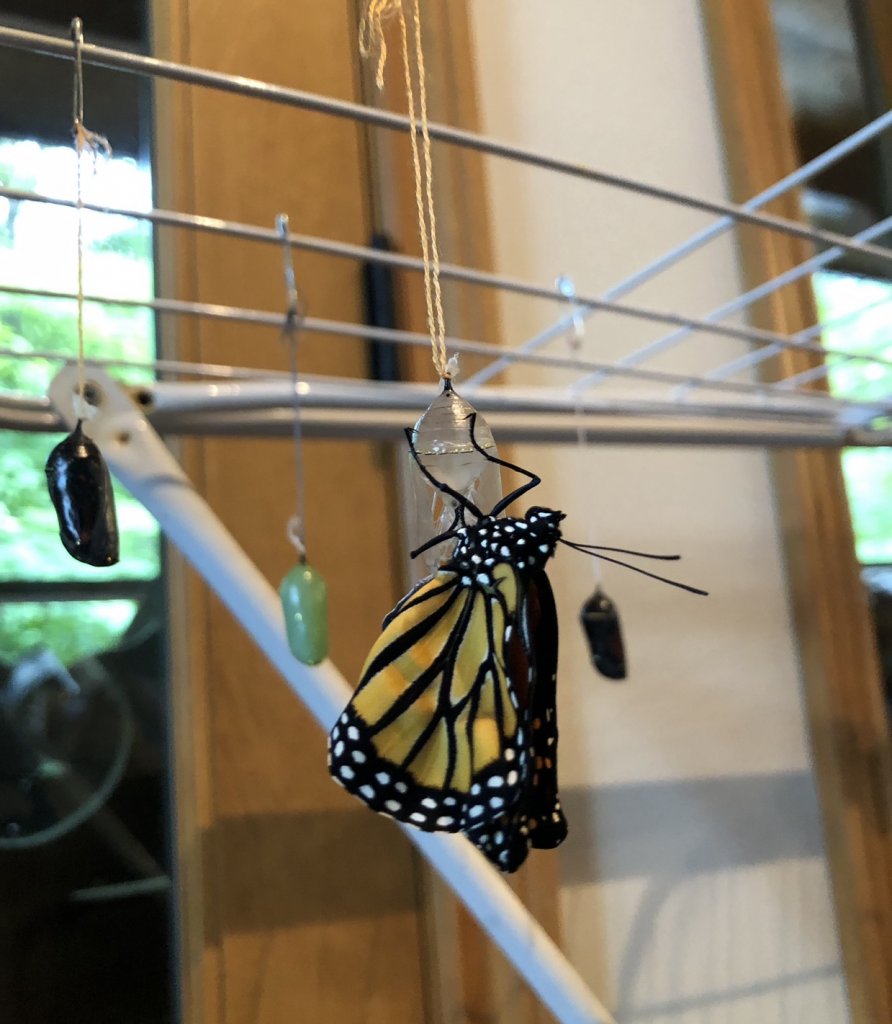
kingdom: Animalia
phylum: Arthropoda
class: Insecta
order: Lepidoptera
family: Nymphalidae
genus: Danaus
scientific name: Danaus plexippus
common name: Monarch
